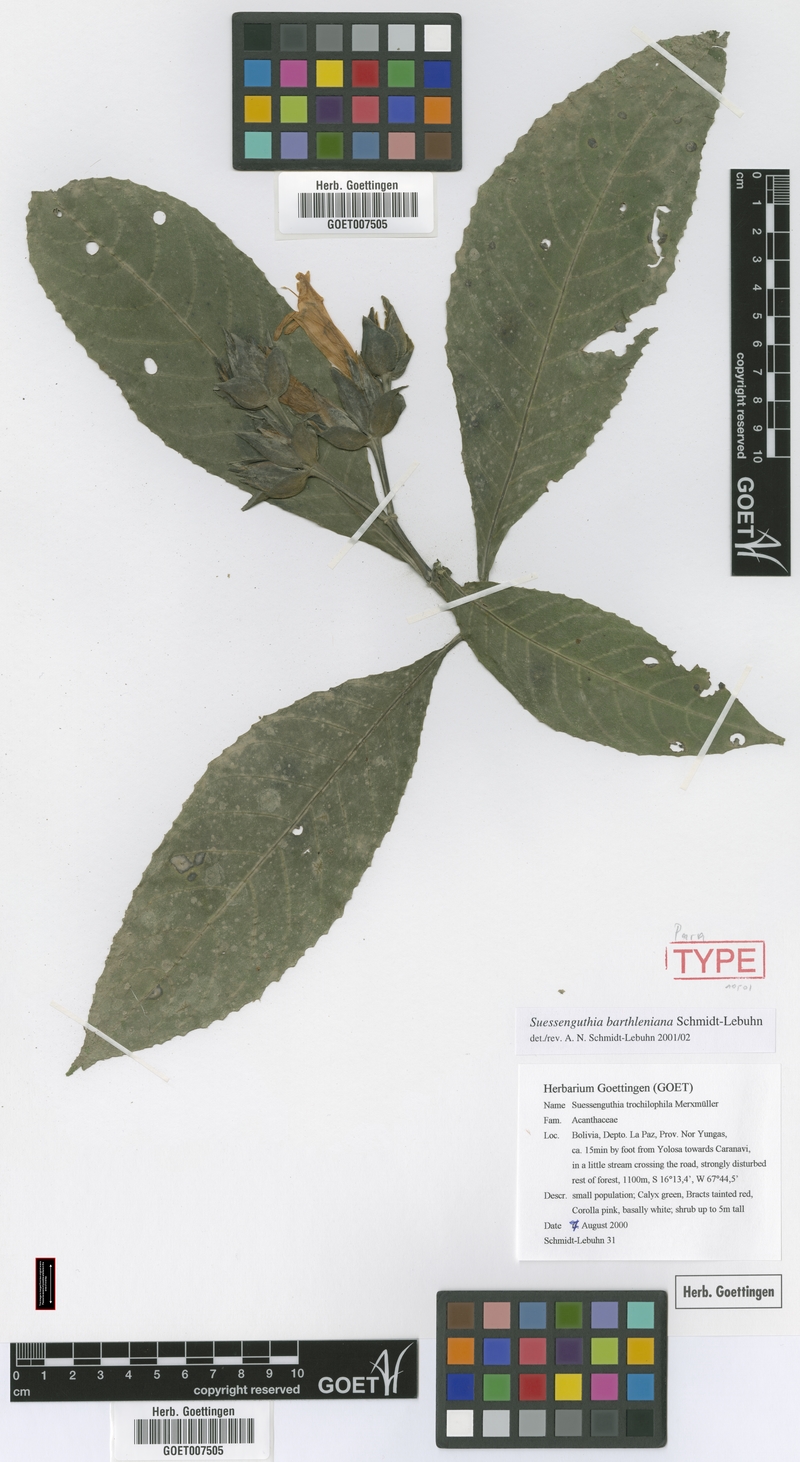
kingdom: Plantae
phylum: Tracheophyta
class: Magnoliopsida
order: Lamiales
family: Acanthaceae
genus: Suessenguthia
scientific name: Suessenguthia barthleniana
